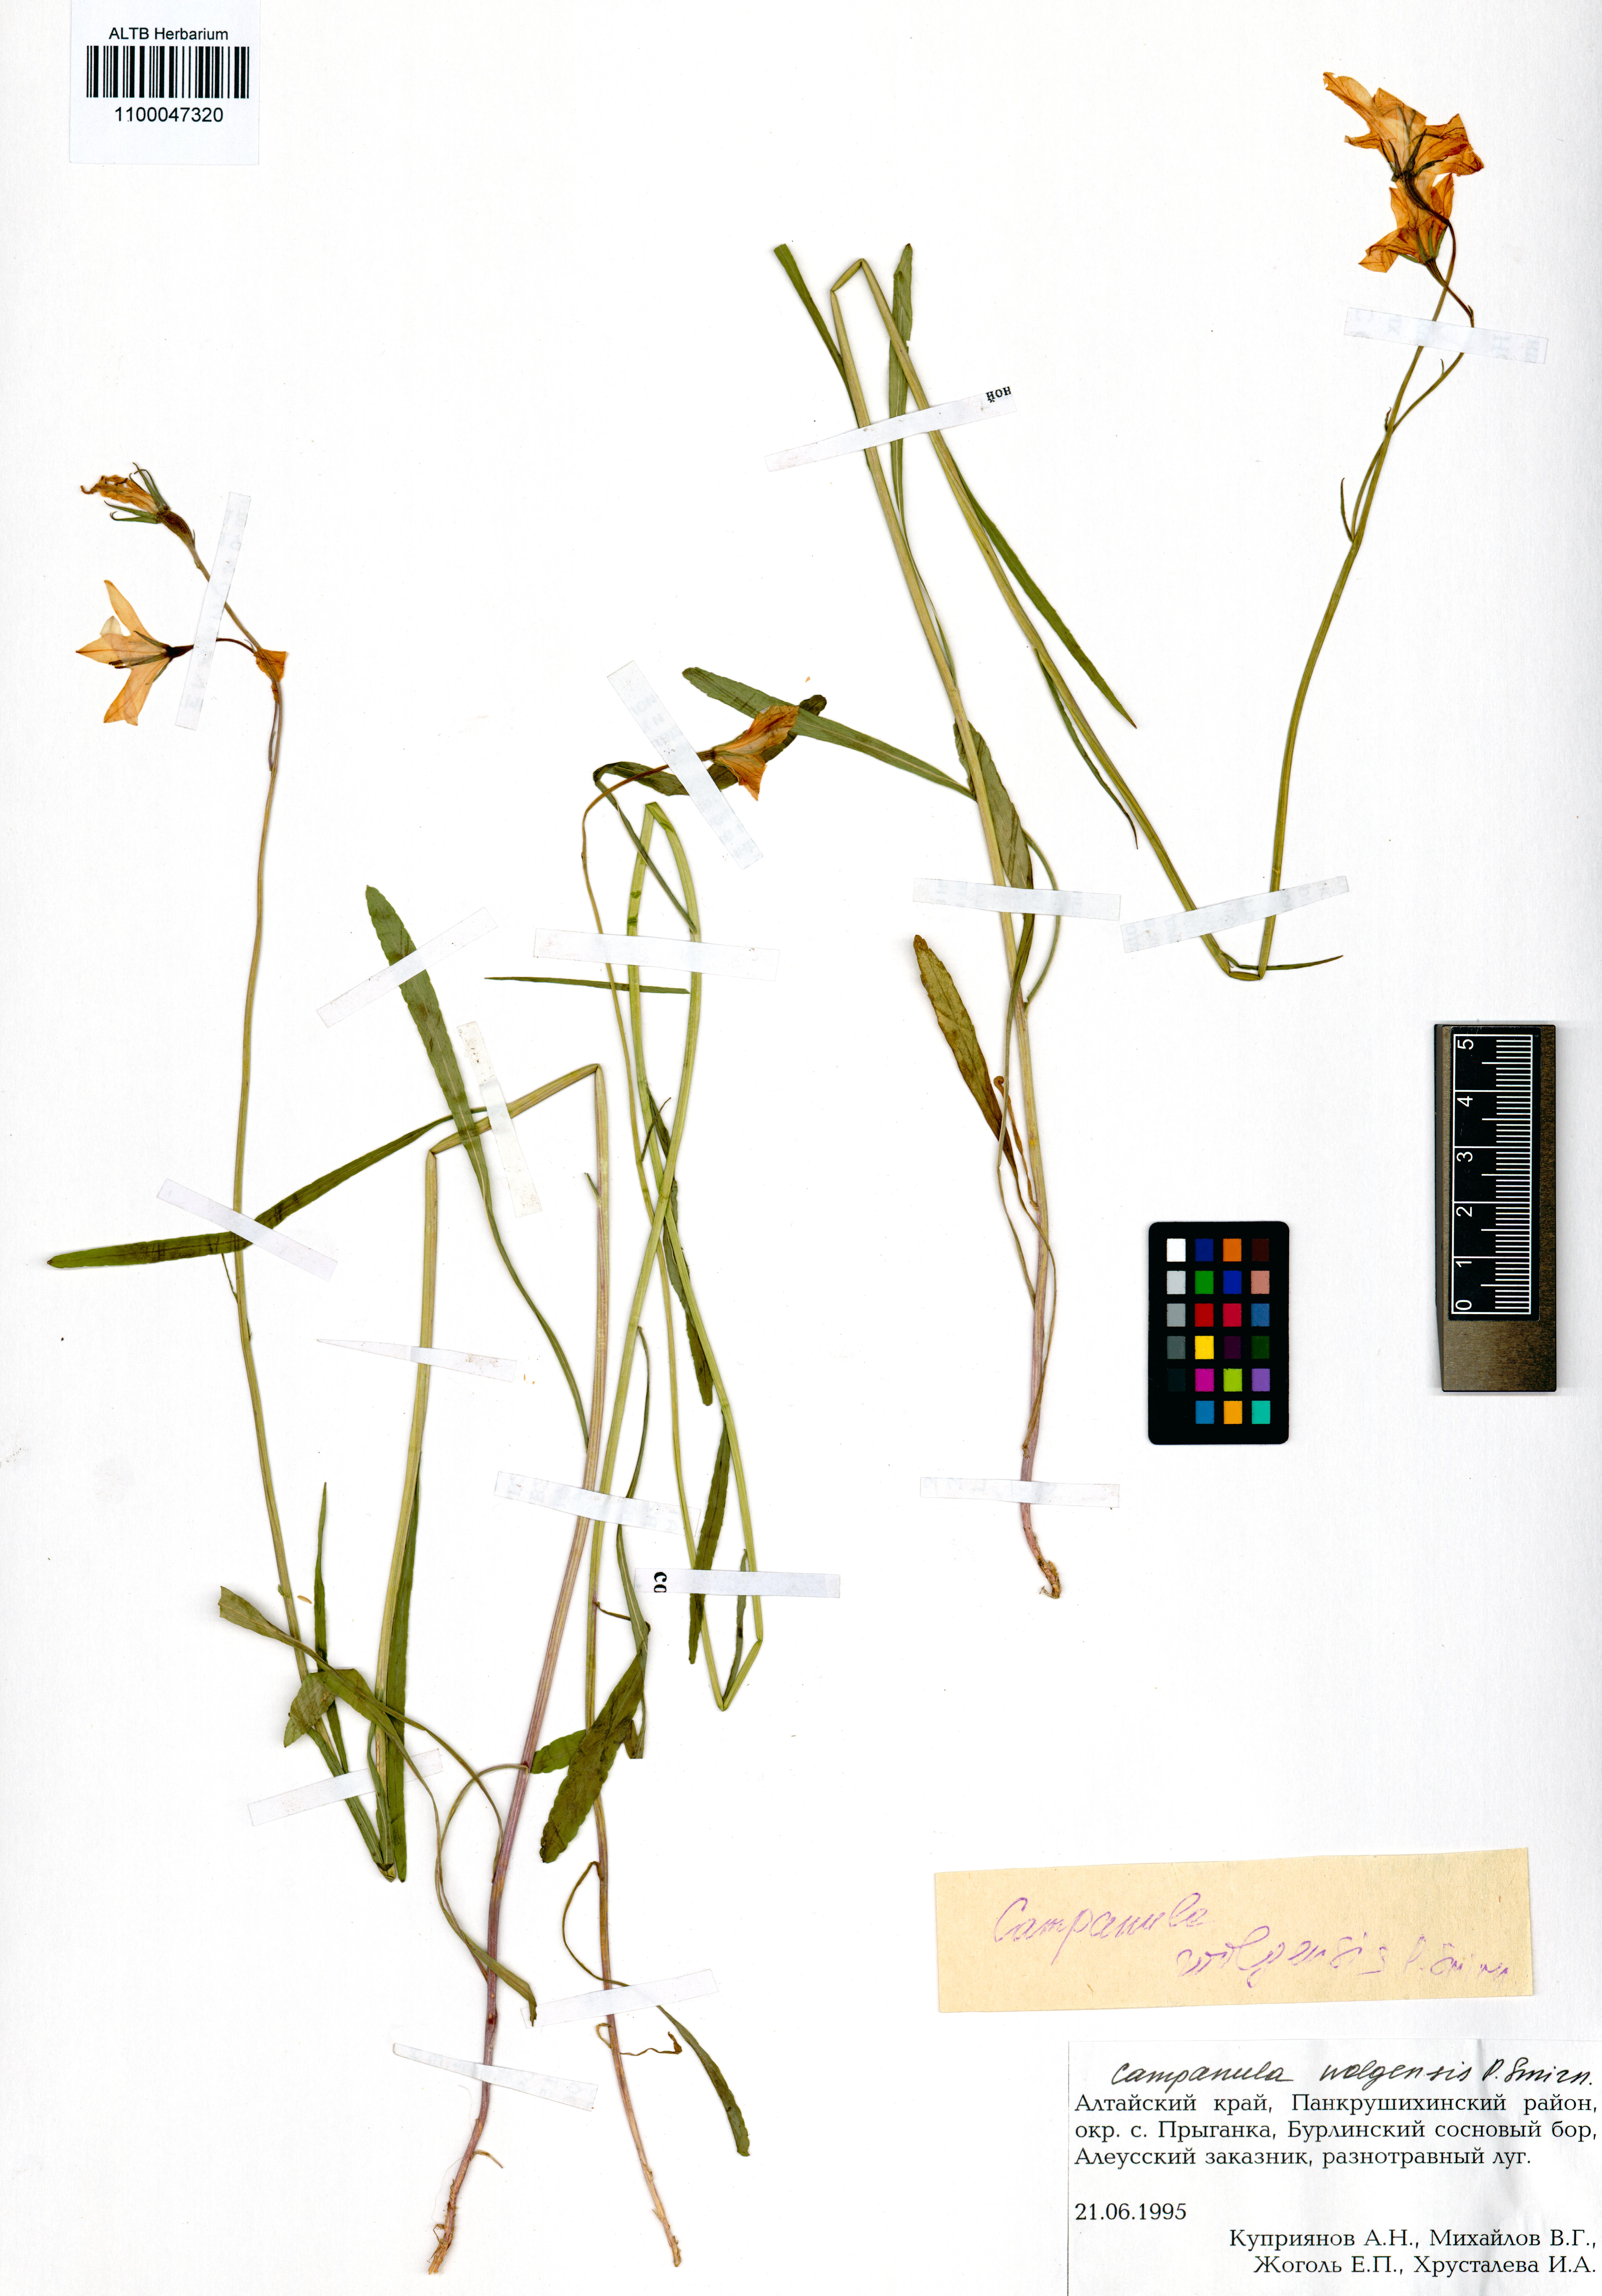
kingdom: Plantae
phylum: Tracheophyta
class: Magnoliopsida
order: Asterales
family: Campanulaceae
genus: Campanula
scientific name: Campanula stevenii
